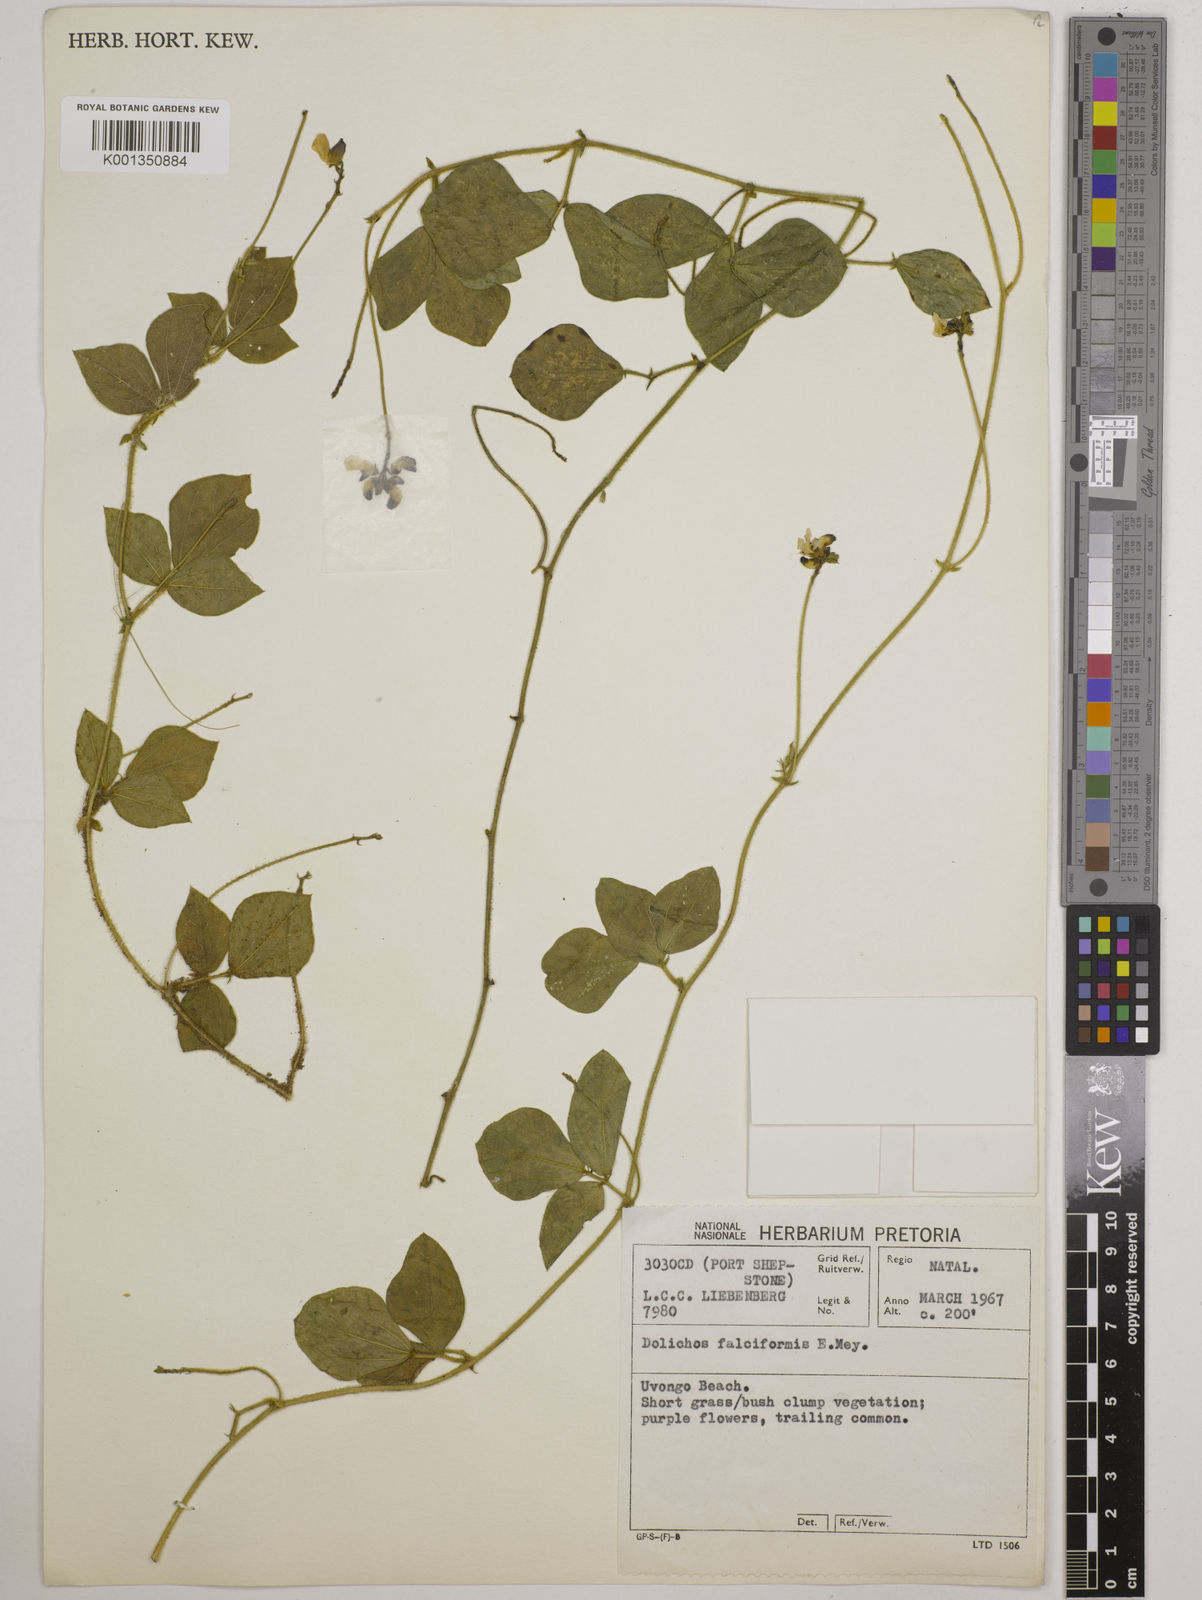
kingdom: Plantae
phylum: Tracheophyta
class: Magnoliopsida
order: Fabales
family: Fabaceae
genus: Dolichos
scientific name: Dolichos falciformis
